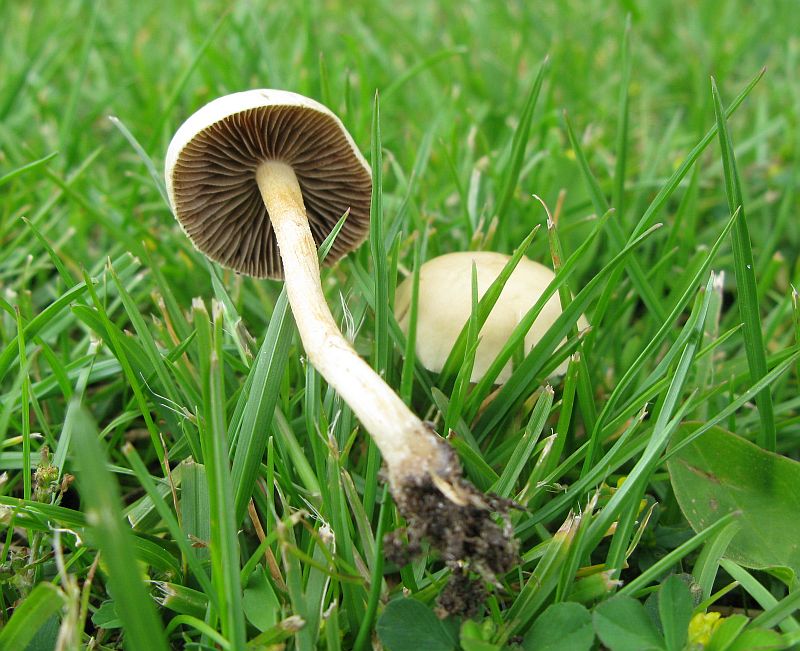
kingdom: Fungi
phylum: Basidiomycota
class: Agaricomycetes
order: Agaricales
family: Strophariaceae
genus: Agrocybe
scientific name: Agrocybe pediades
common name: almindelig agerhat
